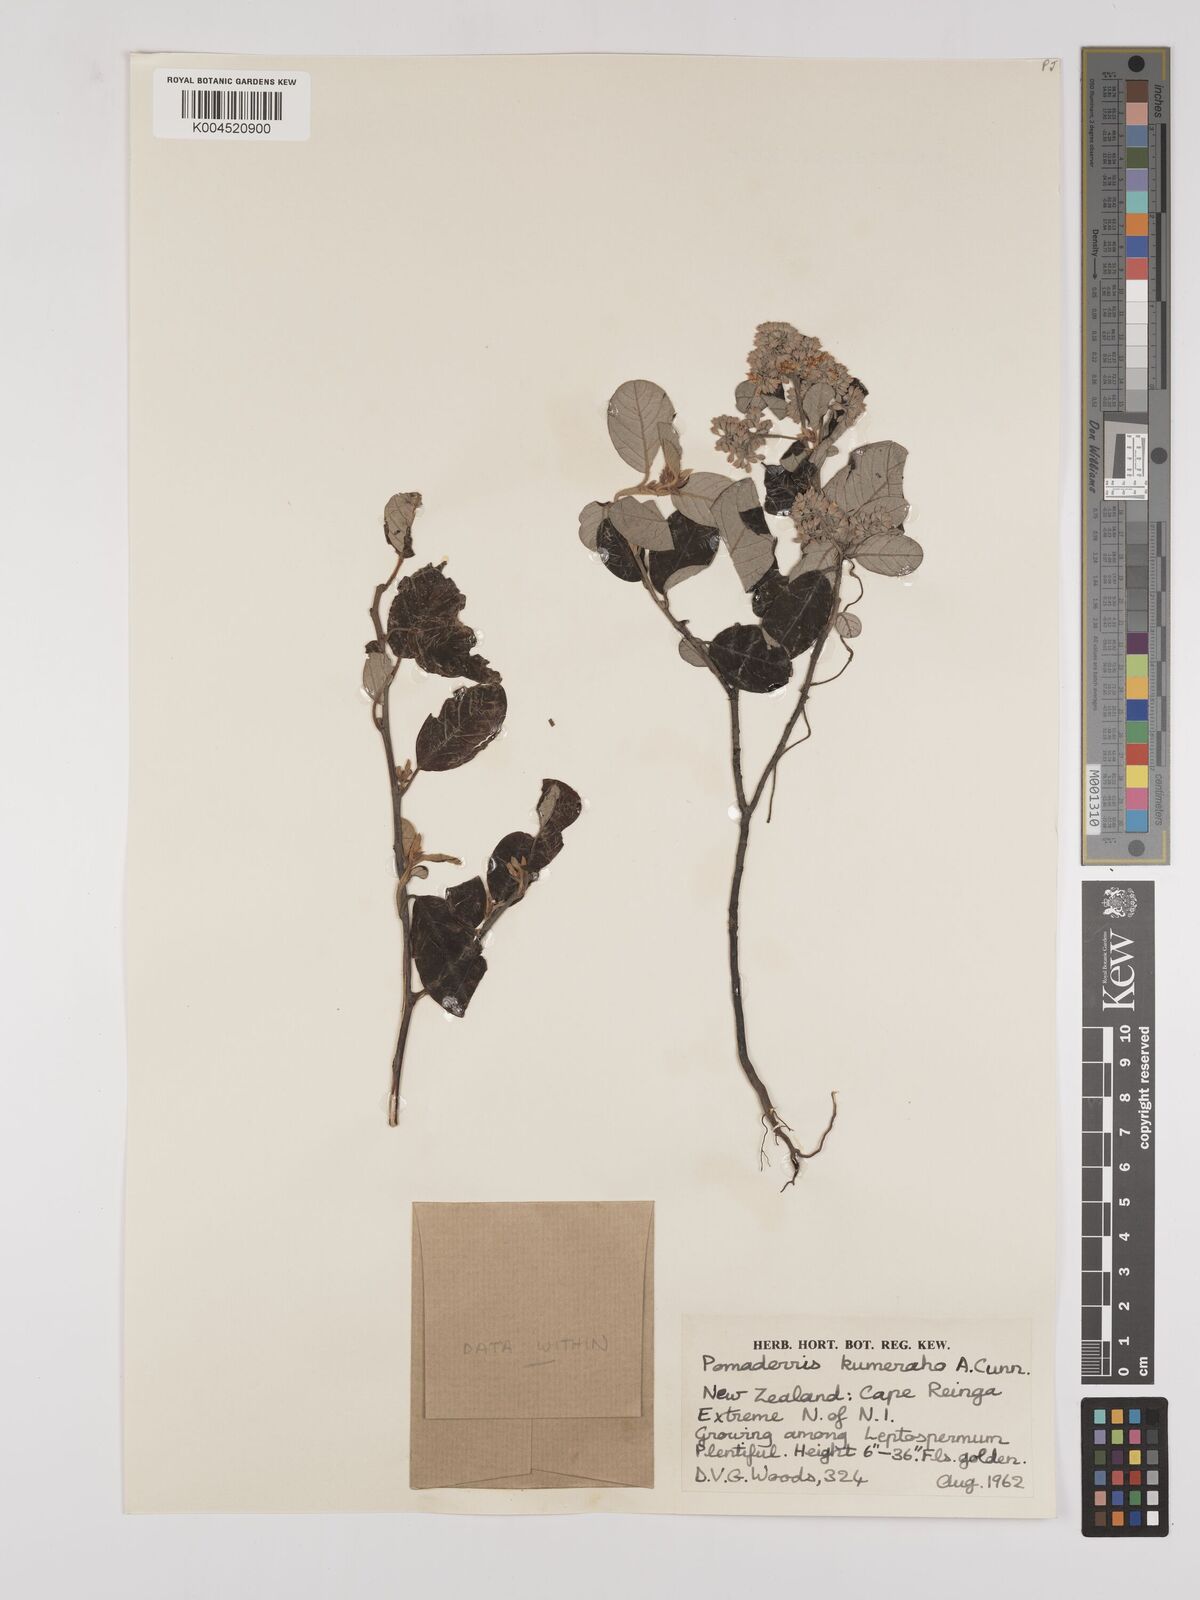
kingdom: Plantae
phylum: Tracheophyta
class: Magnoliopsida
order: Rosales
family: Rhamnaceae
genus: Pomaderris
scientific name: Pomaderris kumeraho
